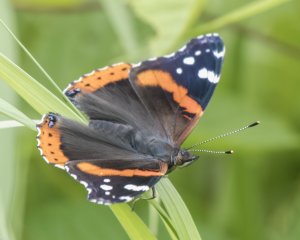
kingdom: Animalia
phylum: Arthropoda
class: Insecta
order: Lepidoptera
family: Nymphalidae
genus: Vanessa
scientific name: Vanessa atalanta
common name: Red Admiral
